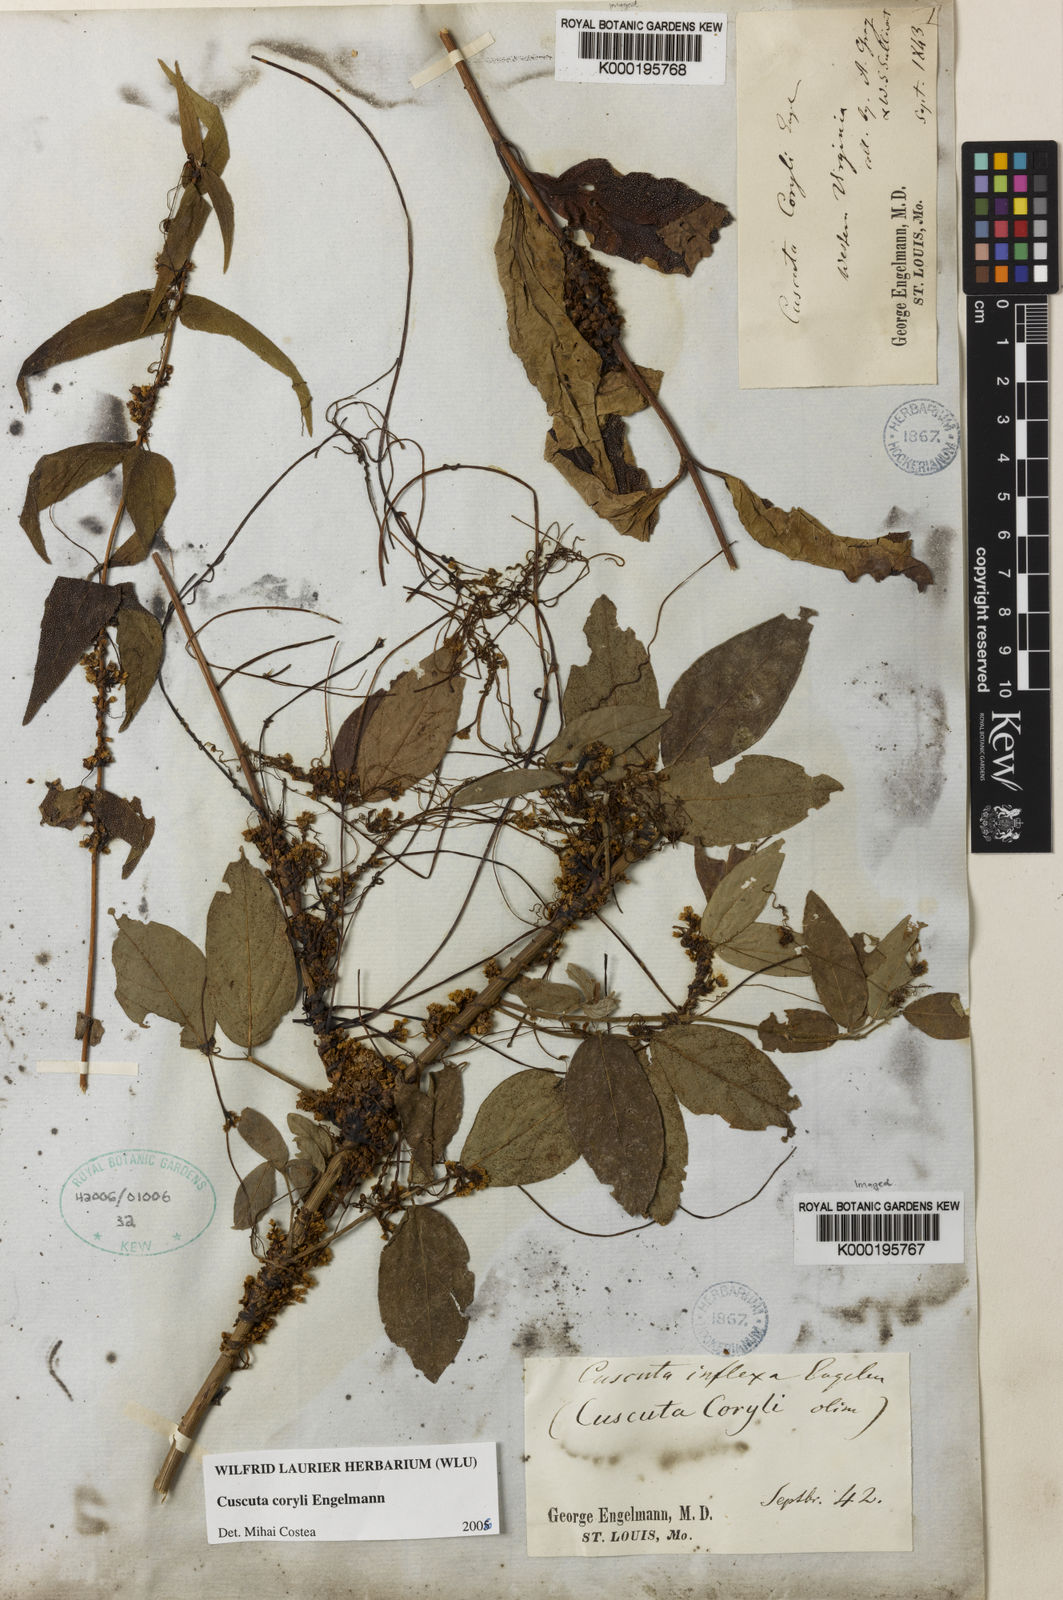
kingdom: Plantae
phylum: Tracheophyta
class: Magnoliopsida
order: Solanales
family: Convolvulaceae
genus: Cuscuta
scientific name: Cuscuta coryli
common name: Hazel dodder
